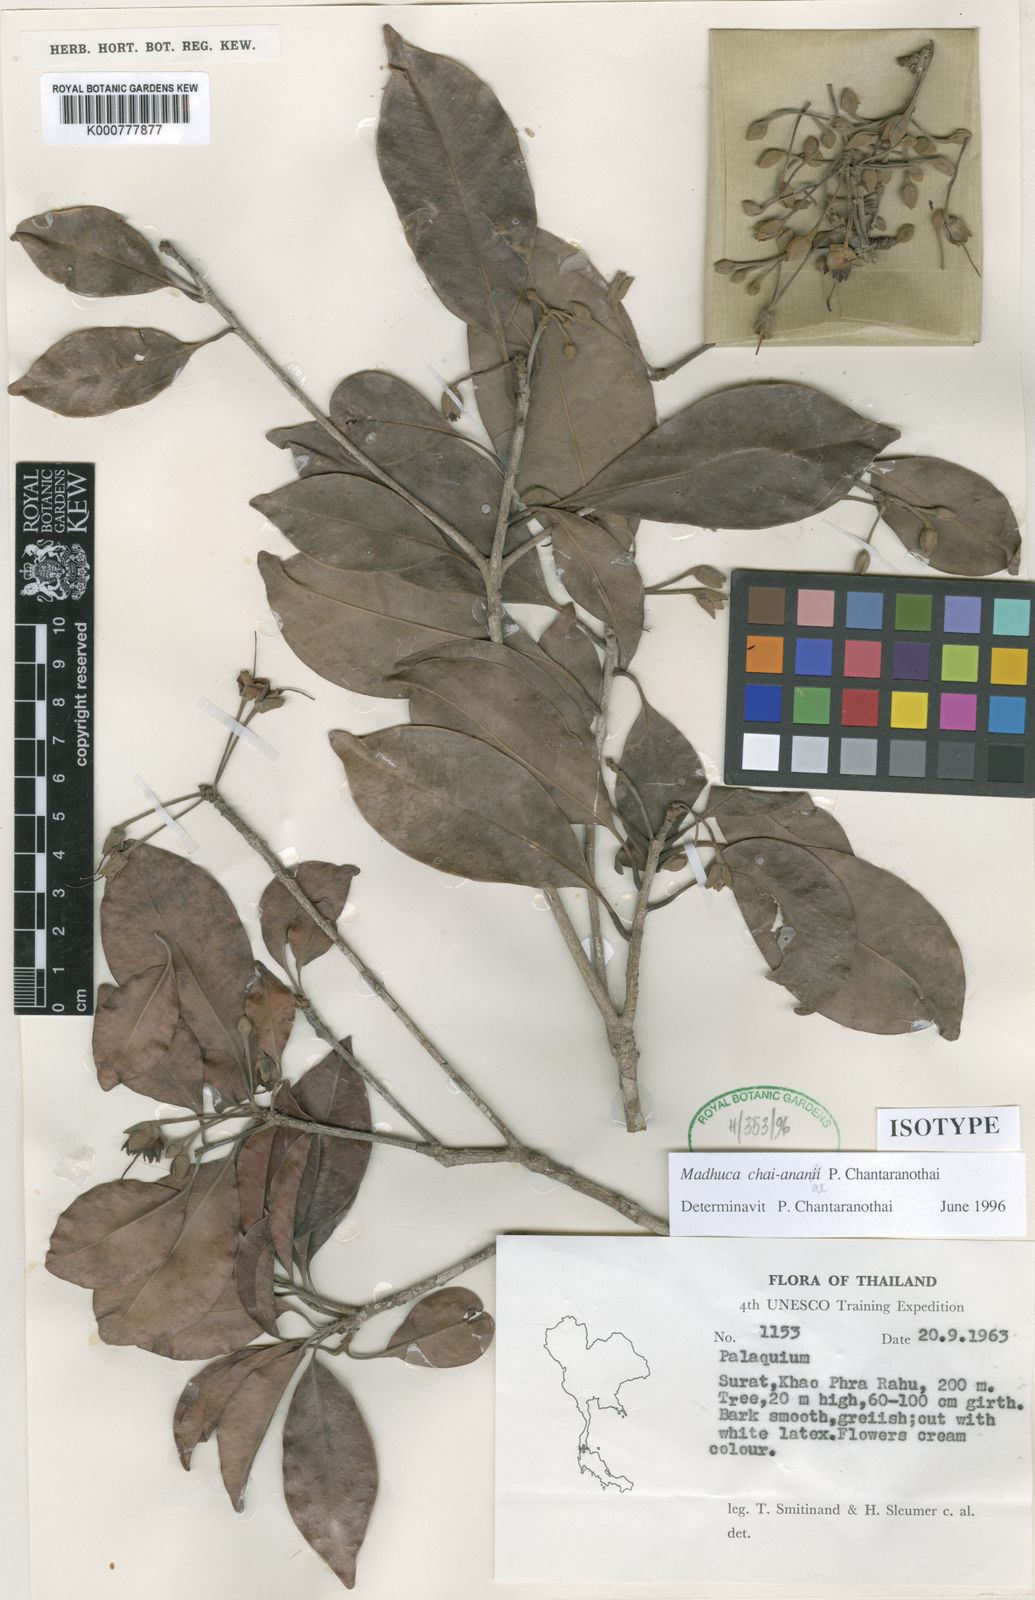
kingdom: Plantae
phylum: Tracheophyta
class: Magnoliopsida
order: Ericales
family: Sapotaceae
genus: Madhuca
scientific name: Madhuca chai-ananii
